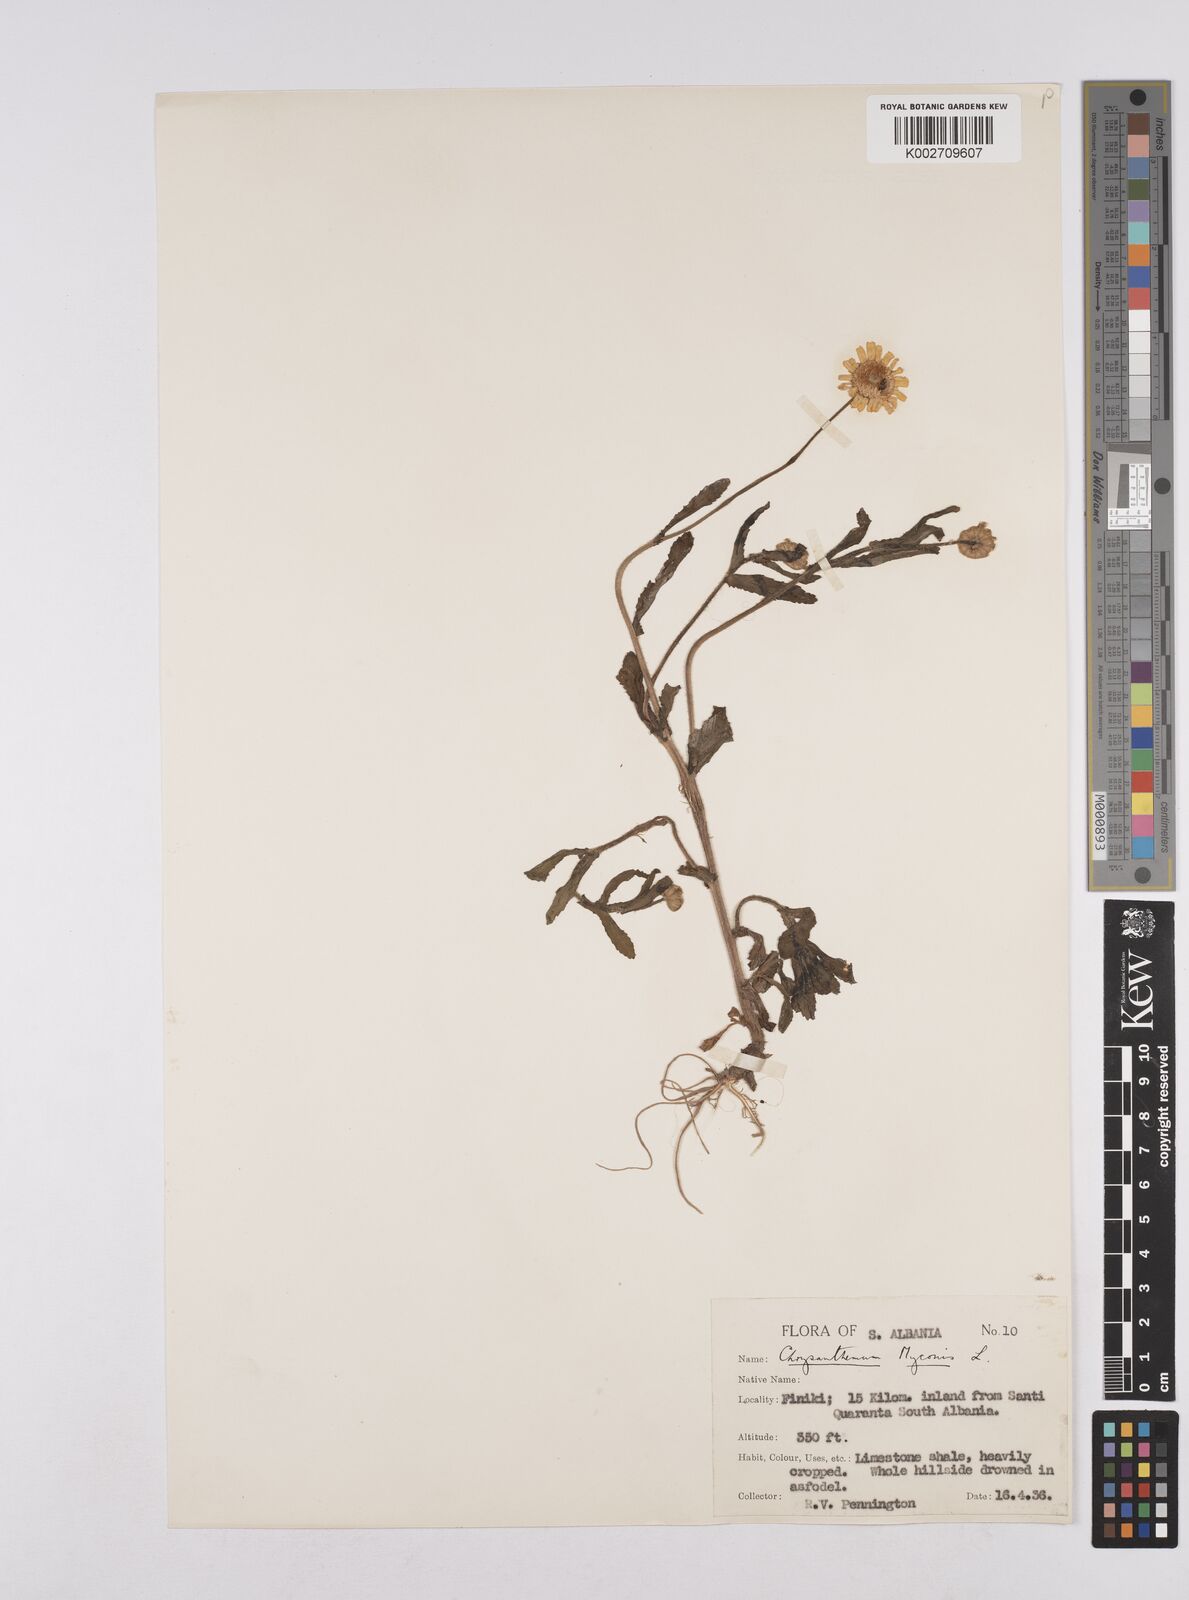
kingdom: Plantae
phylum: Tracheophyta
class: Magnoliopsida
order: Asterales
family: Asteraceae
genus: Coleostephus
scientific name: Coleostephus myconis
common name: Mediterranean marigold
